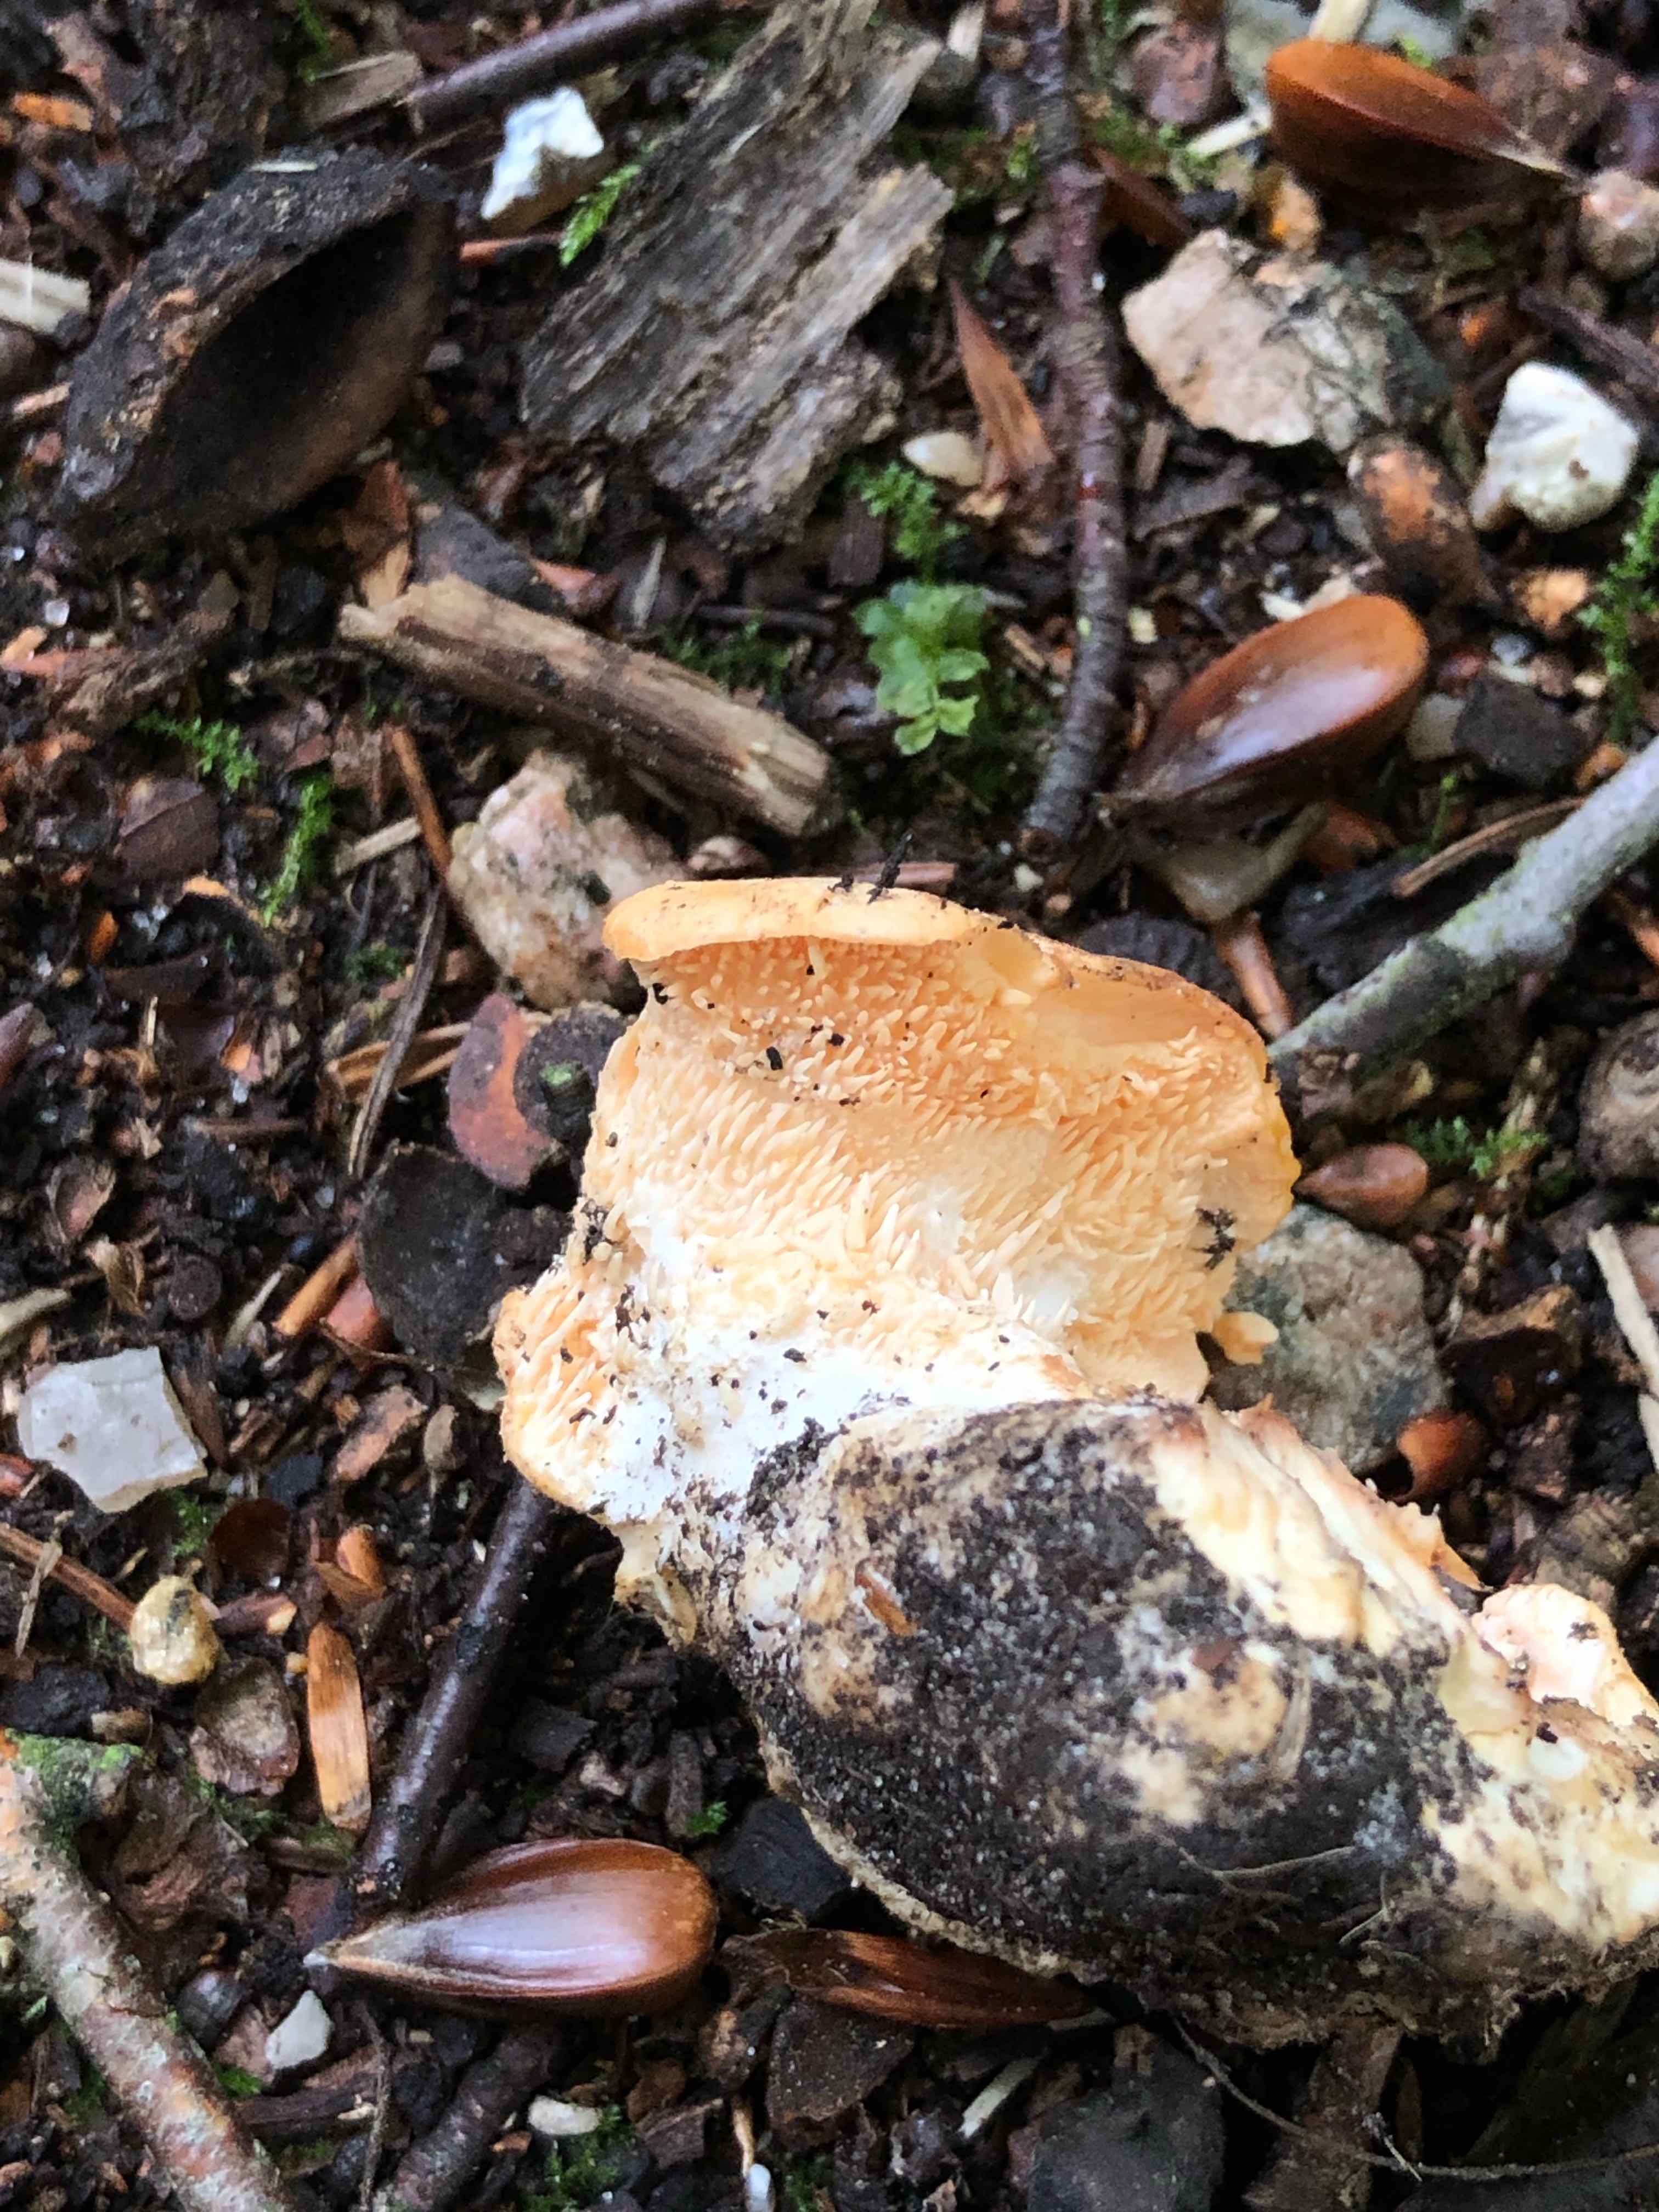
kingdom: Fungi
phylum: Basidiomycota
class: Agaricomycetes
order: Cantharellales
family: Hydnaceae
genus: Hydnum
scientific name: Hydnum
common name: pigsvamp
